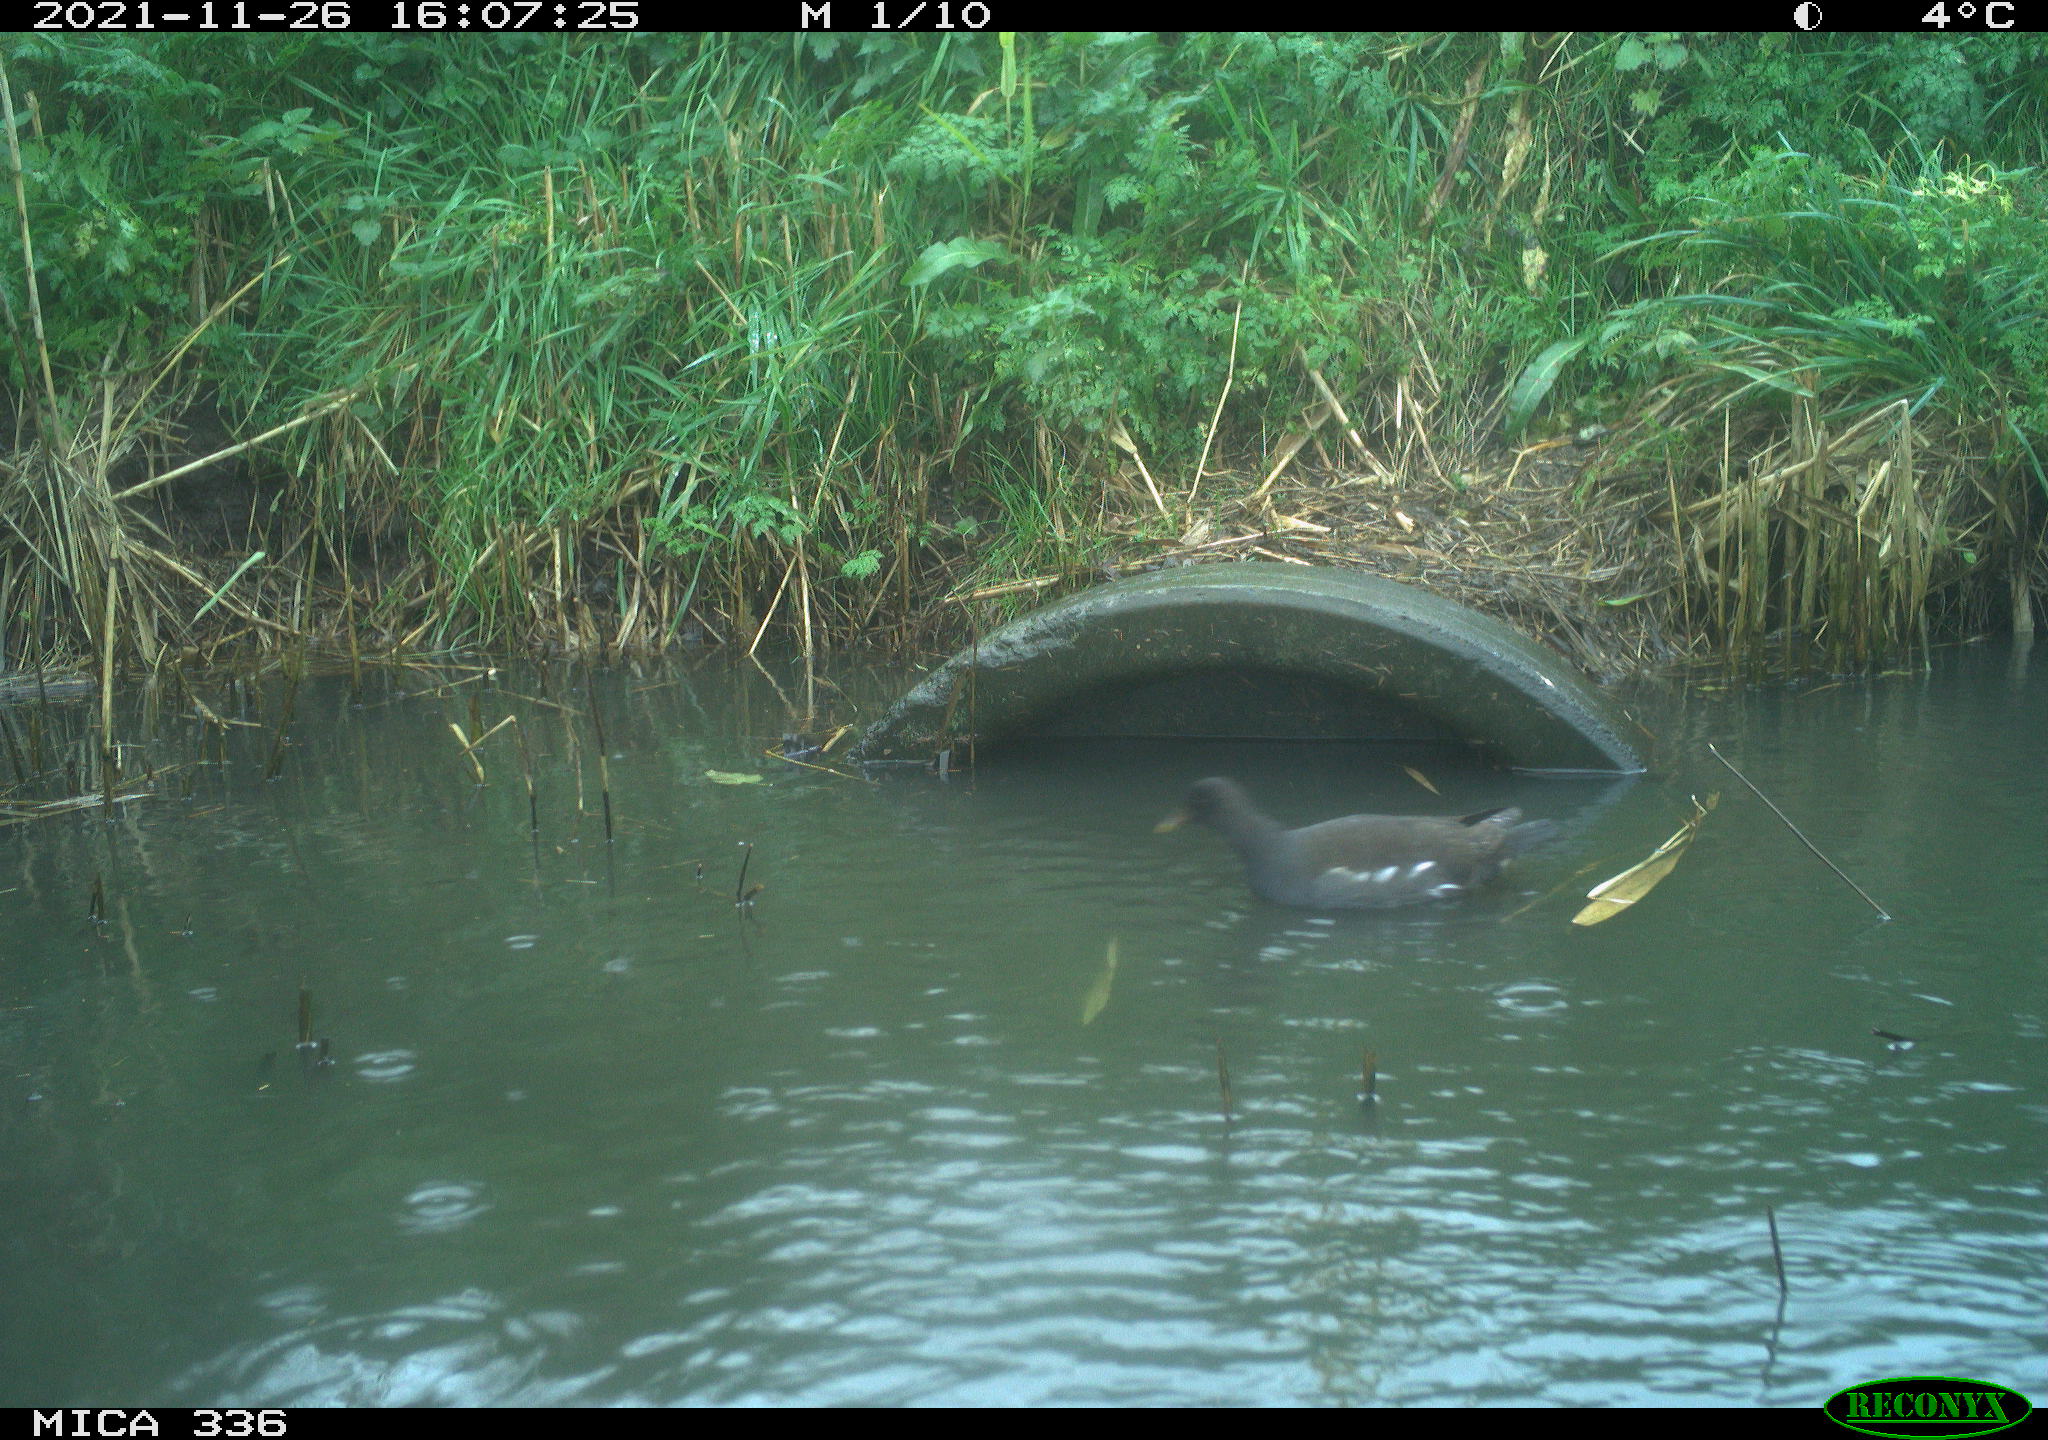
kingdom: Animalia
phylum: Chordata
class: Aves
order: Gruiformes
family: Rallidae
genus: Gallinula
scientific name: Gallinula chloropus
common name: Common moorhen
